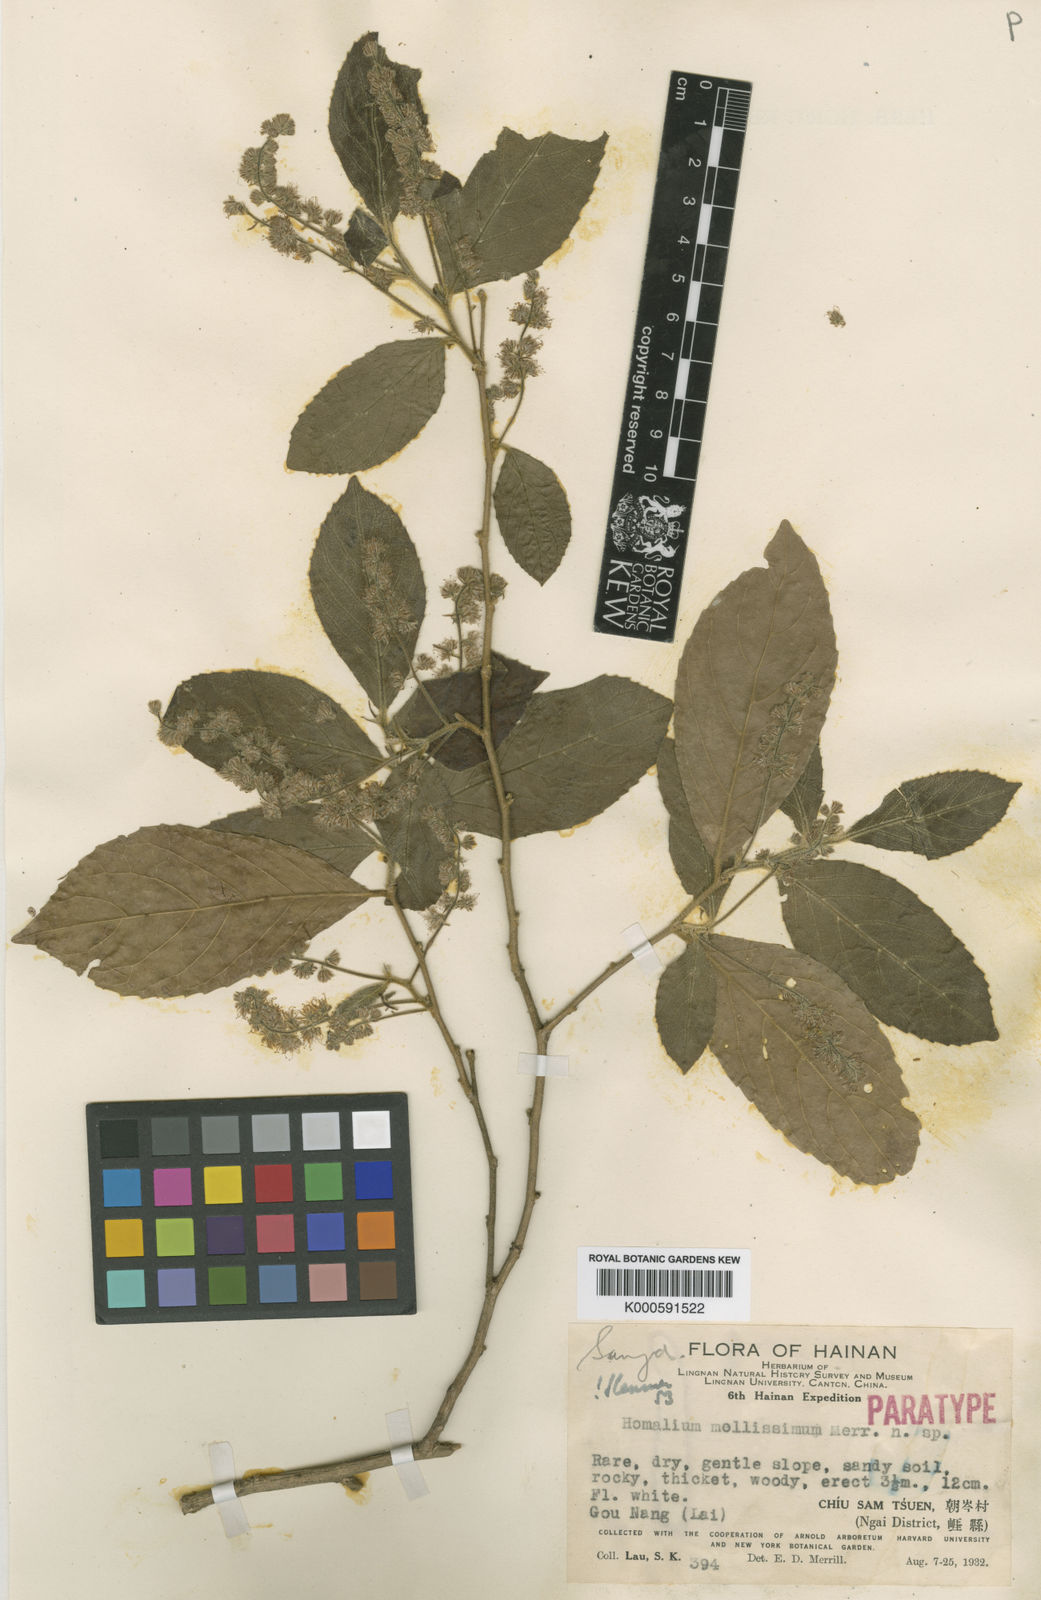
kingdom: Plantae
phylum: Tracheophyta
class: Magnoliopsida
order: Malpighiales
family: Salicaceae
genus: Homalium
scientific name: Homalium mollissimum
